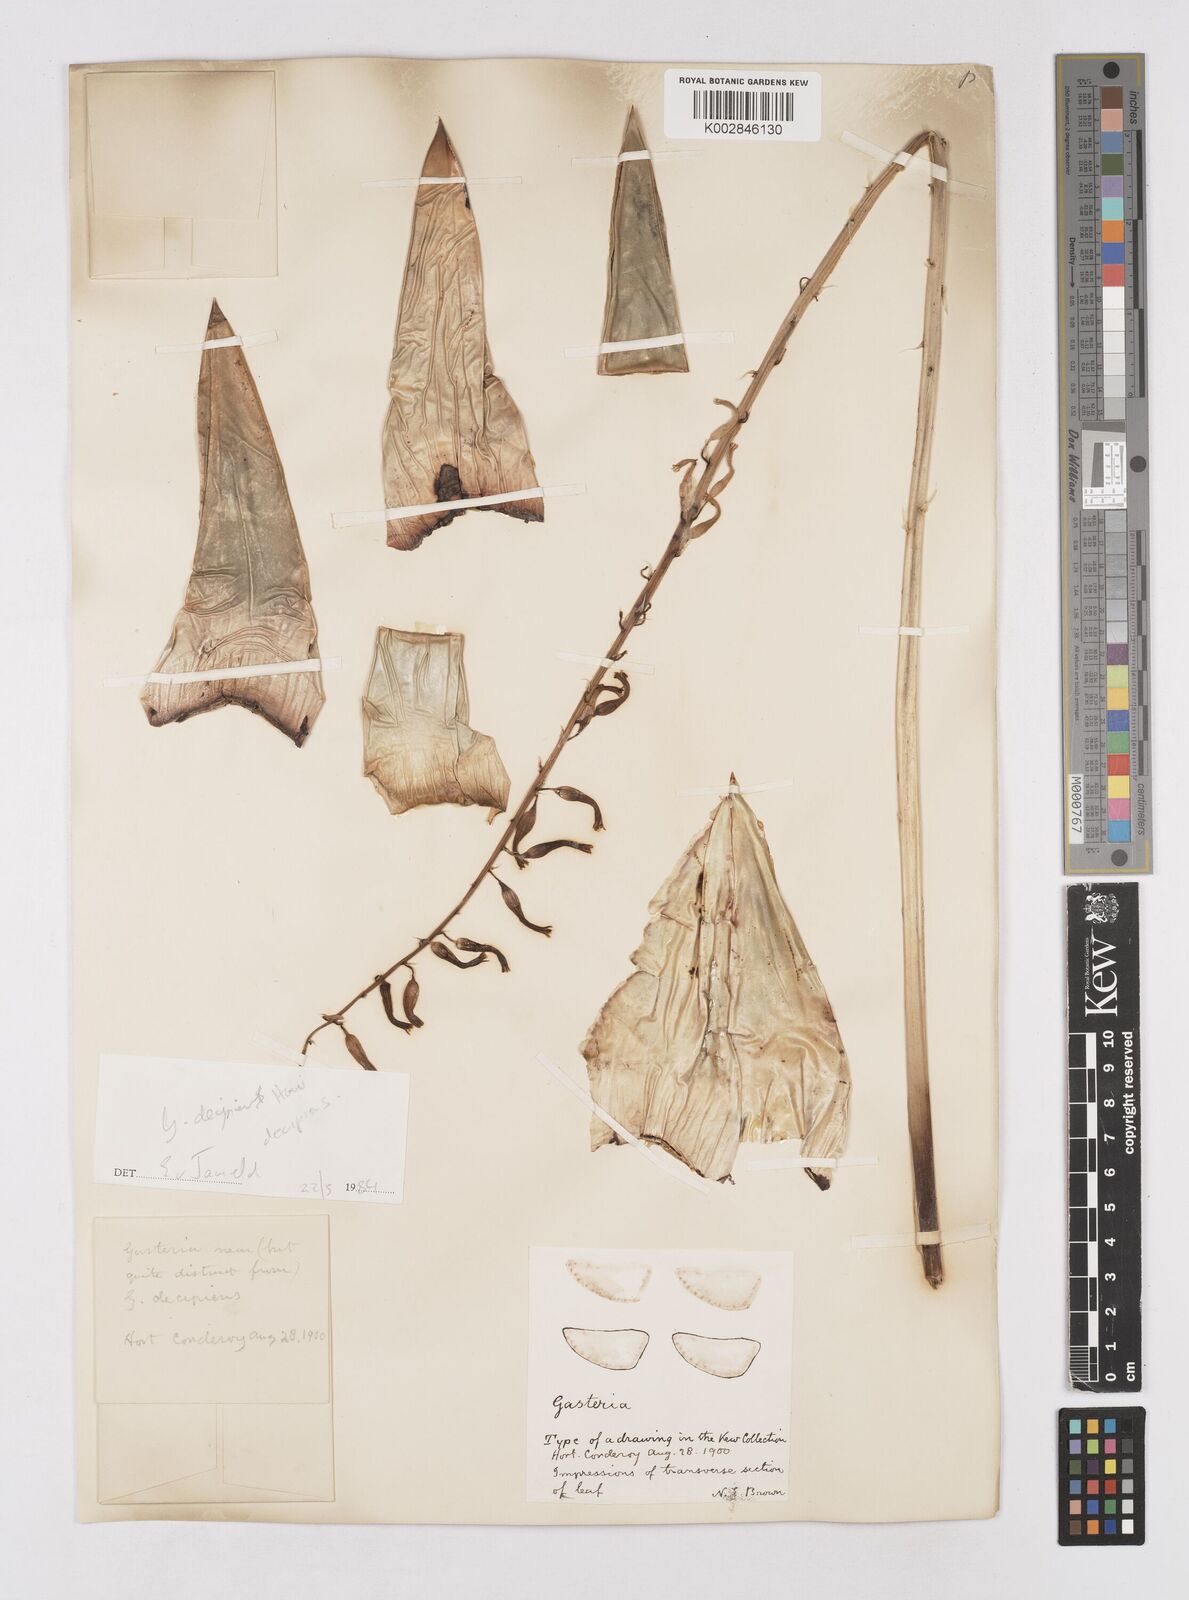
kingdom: Plantae
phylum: Tracheophyta
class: Liliopsida
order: Asparagales
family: Asphodelaceae
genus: Gasteria
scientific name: Gasteria
